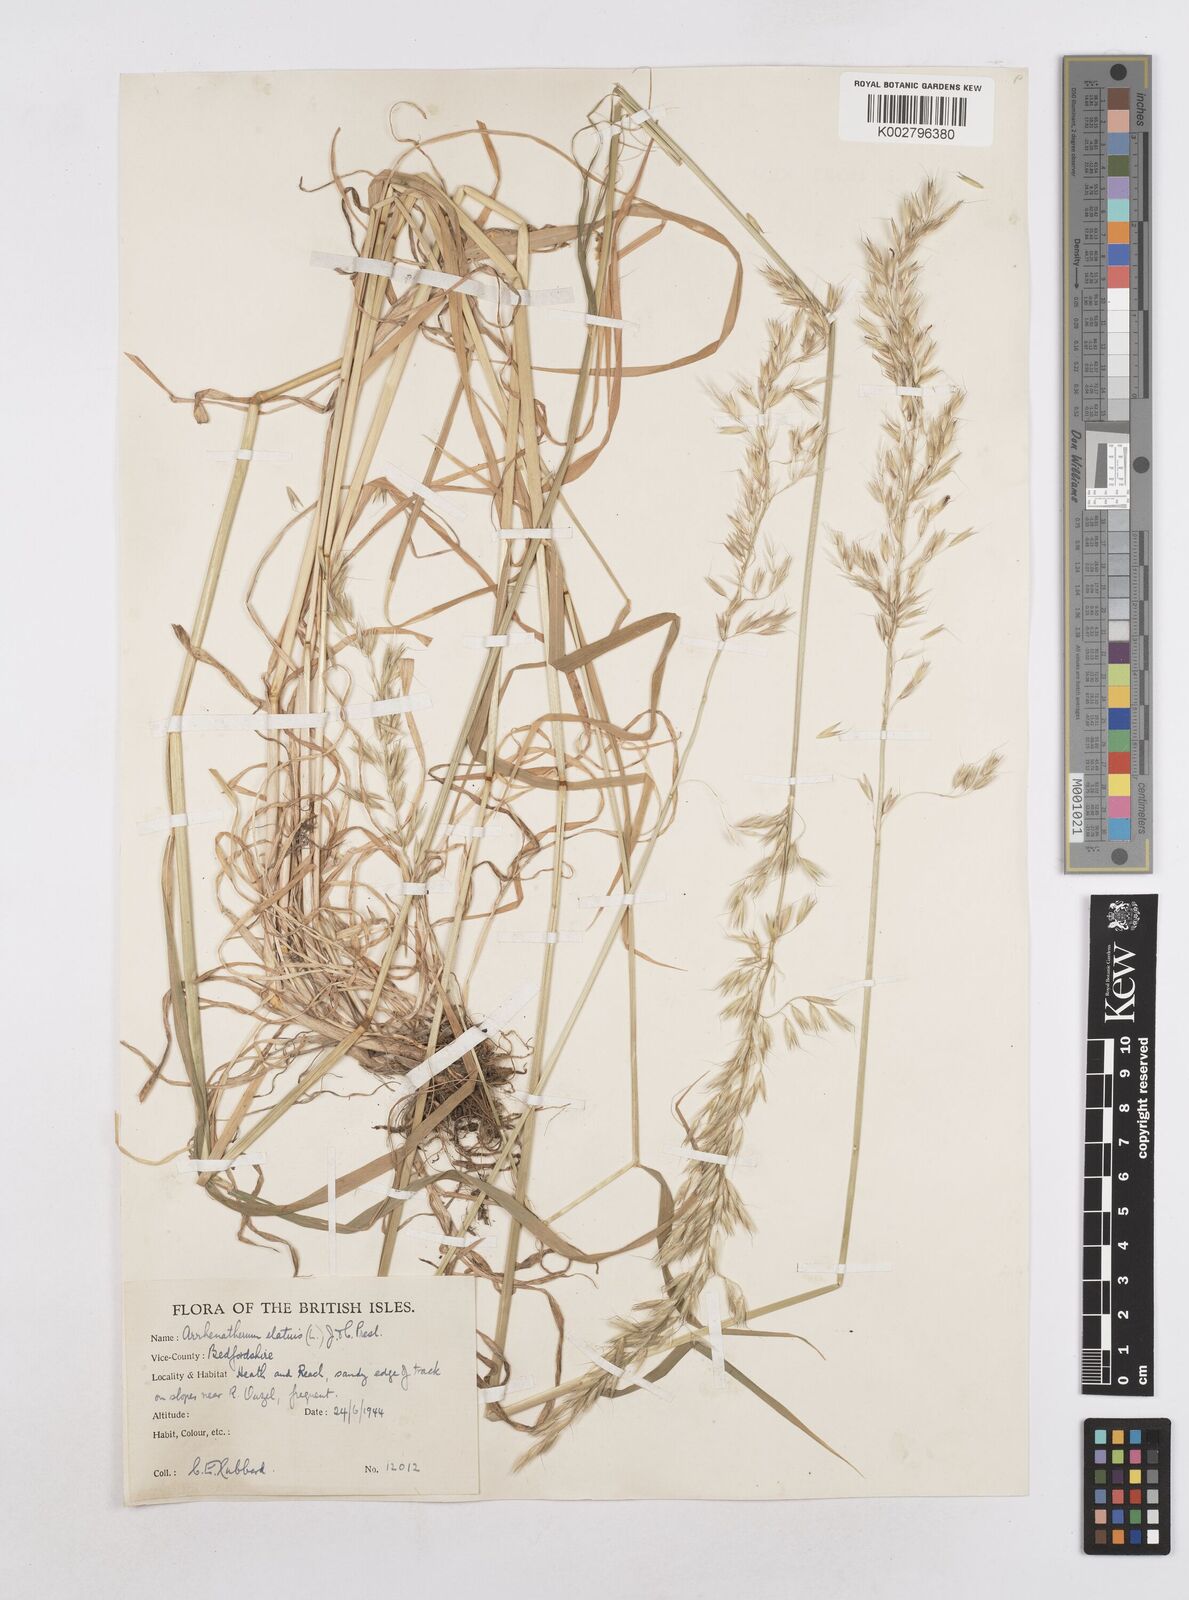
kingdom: Plantae
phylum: Tracheophyta
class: Liliopsida
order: Poales
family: Poaceae
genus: Arrhenatherum
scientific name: Arrhenatherum elatius
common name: Tall oatgrass
